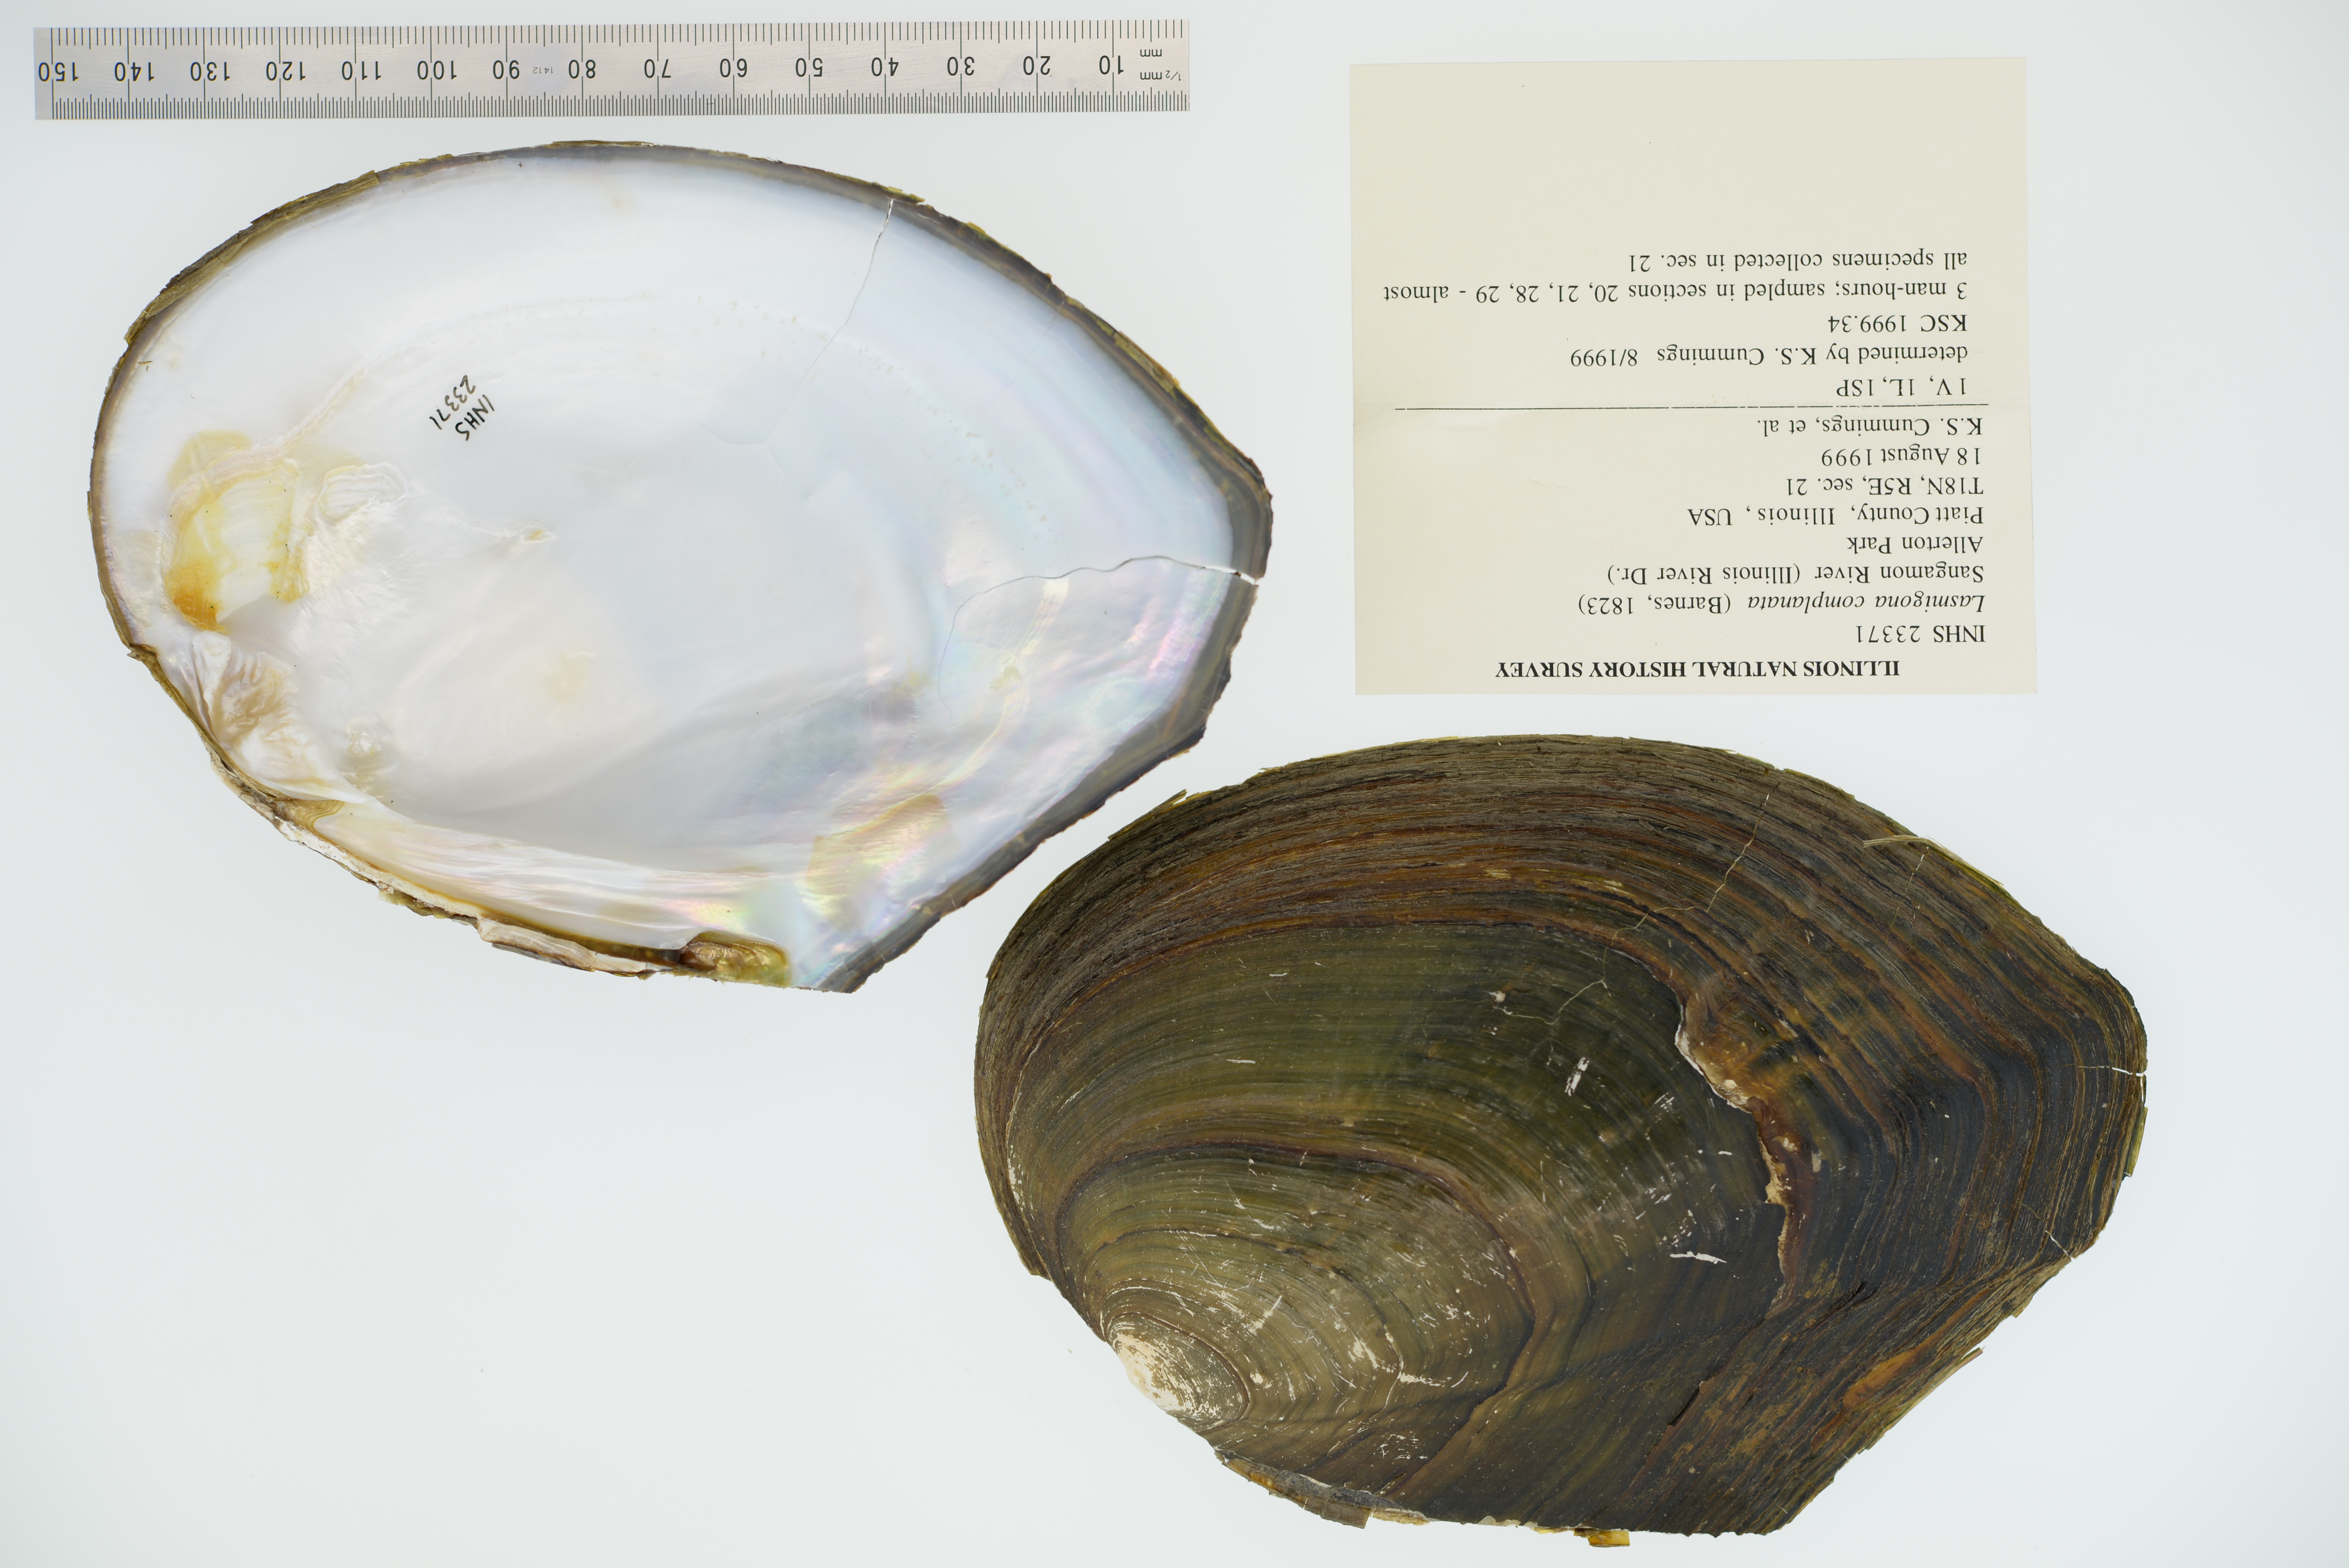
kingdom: Animalia
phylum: Mollusca
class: Bivalvia
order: Unionida
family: Unionidae
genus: Lasmigona
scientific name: Lasmigona complanata
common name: White heelsplitter
